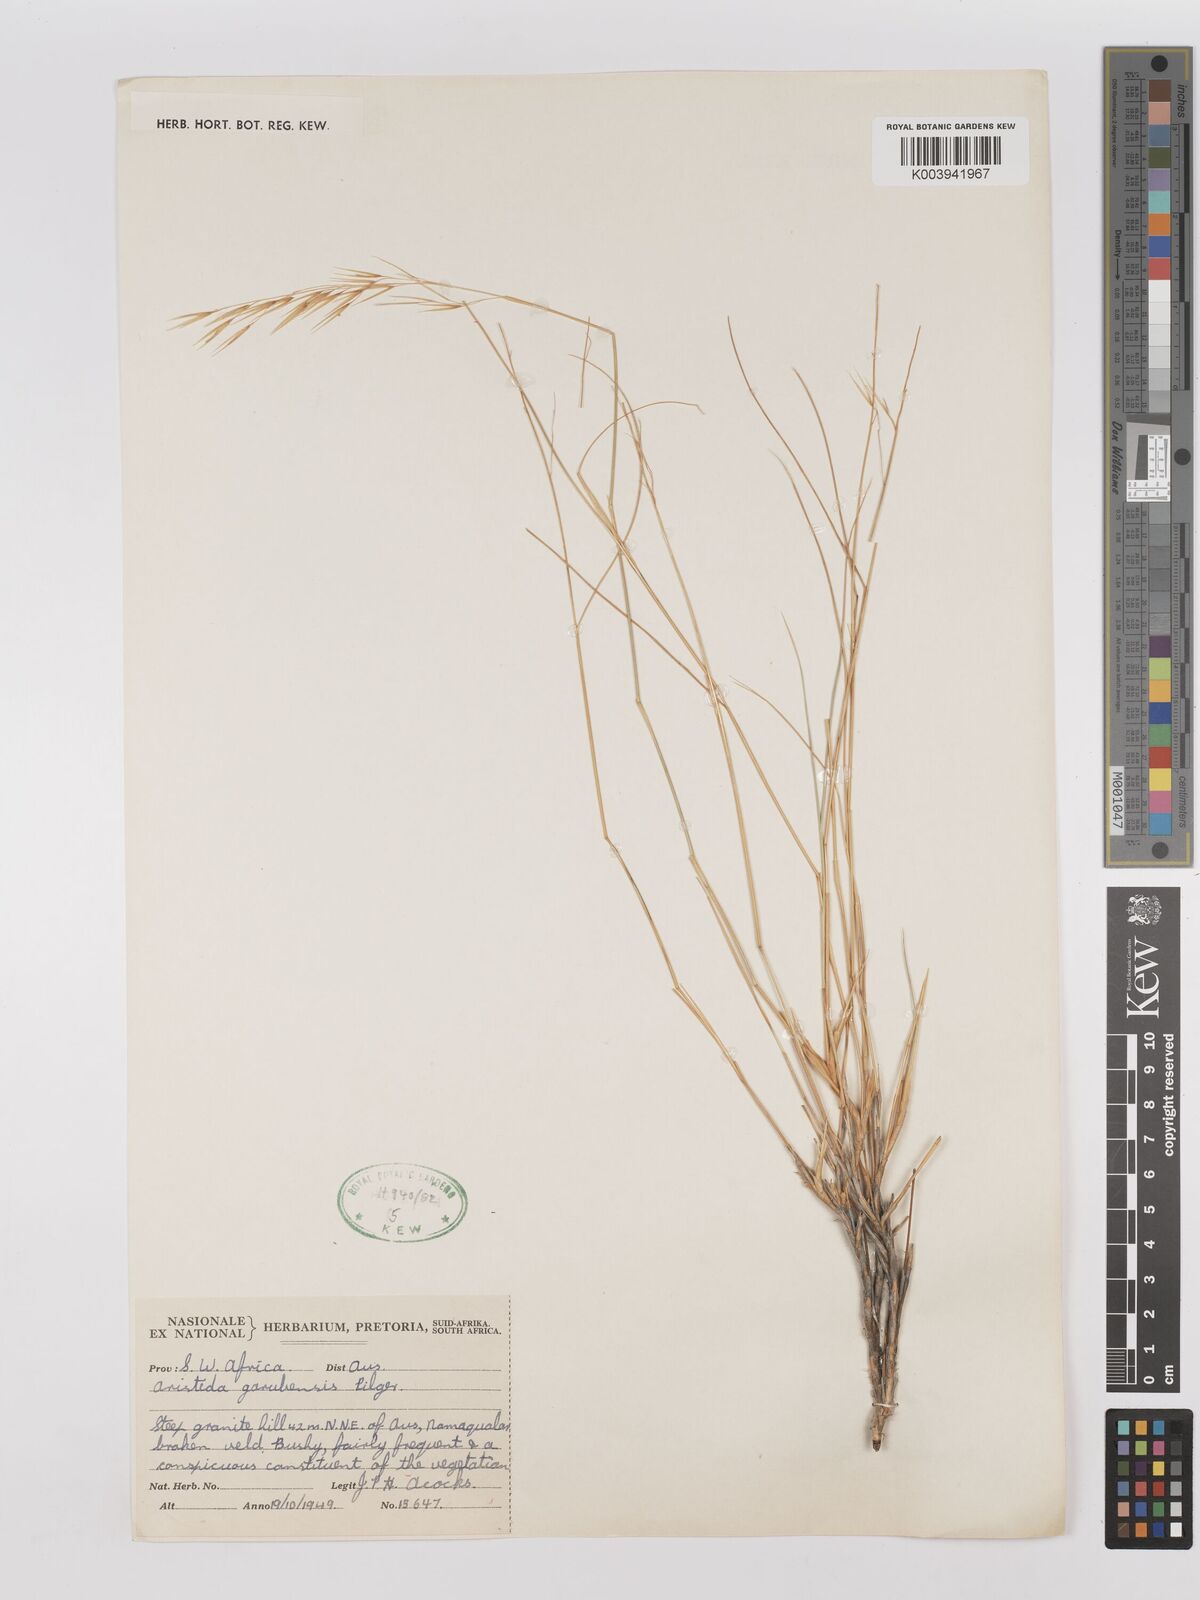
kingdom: Plantae
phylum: Tracheophyta
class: Liliopsida
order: Poales
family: Poaceae
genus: Stipagrostis
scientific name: Stipagrostis garubensis
